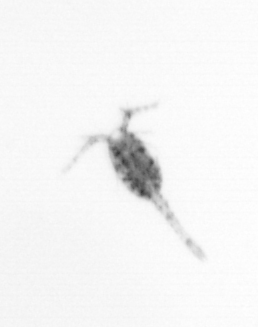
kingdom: Animalia
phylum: Arthropoda
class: Copepoda
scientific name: Copepoda
